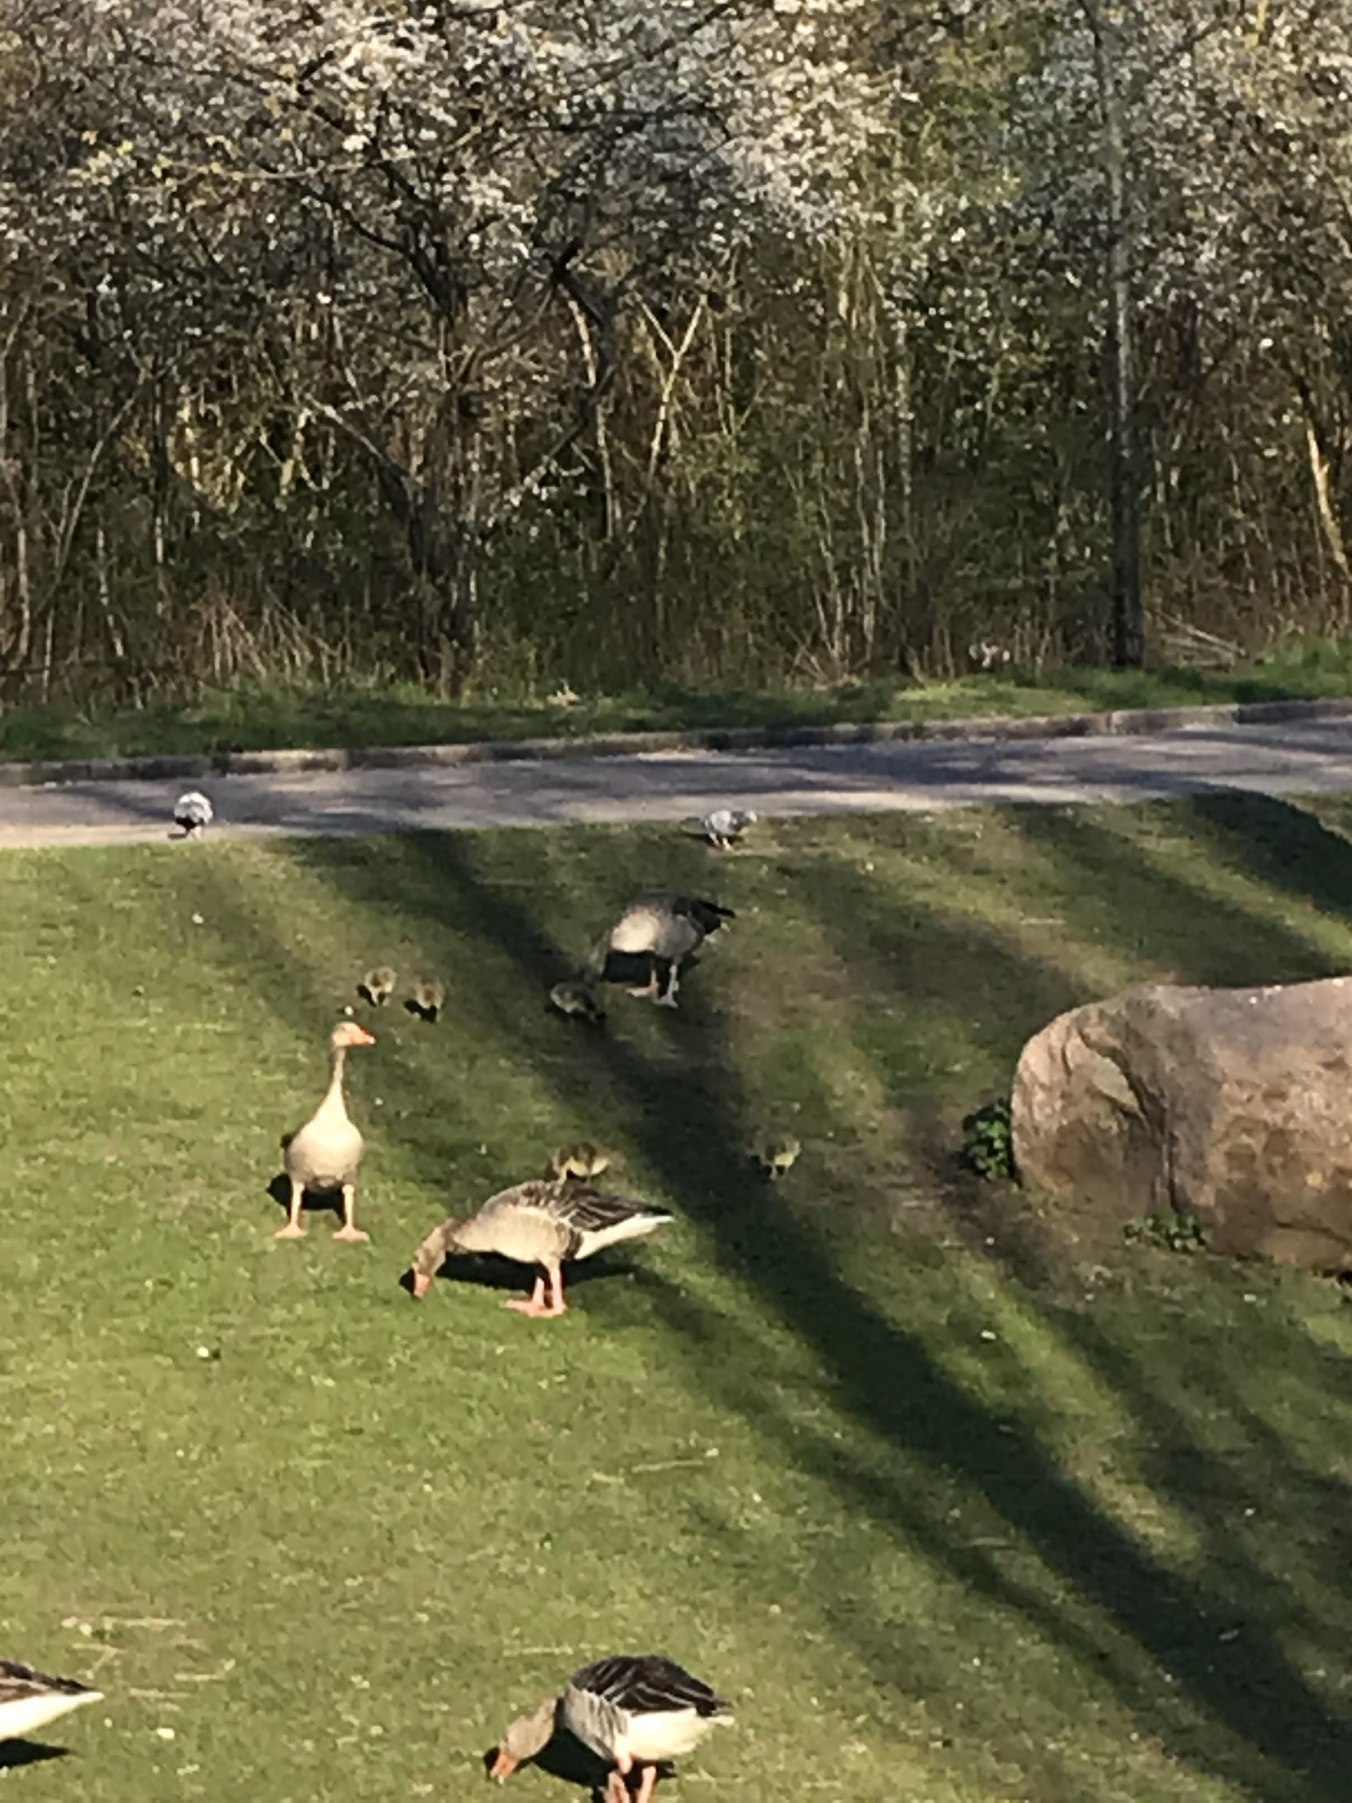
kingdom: Animalia
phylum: Chordata
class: Aves
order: Anseriformes
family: Anatidae
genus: Anser
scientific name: Anser anser
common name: Grågås
